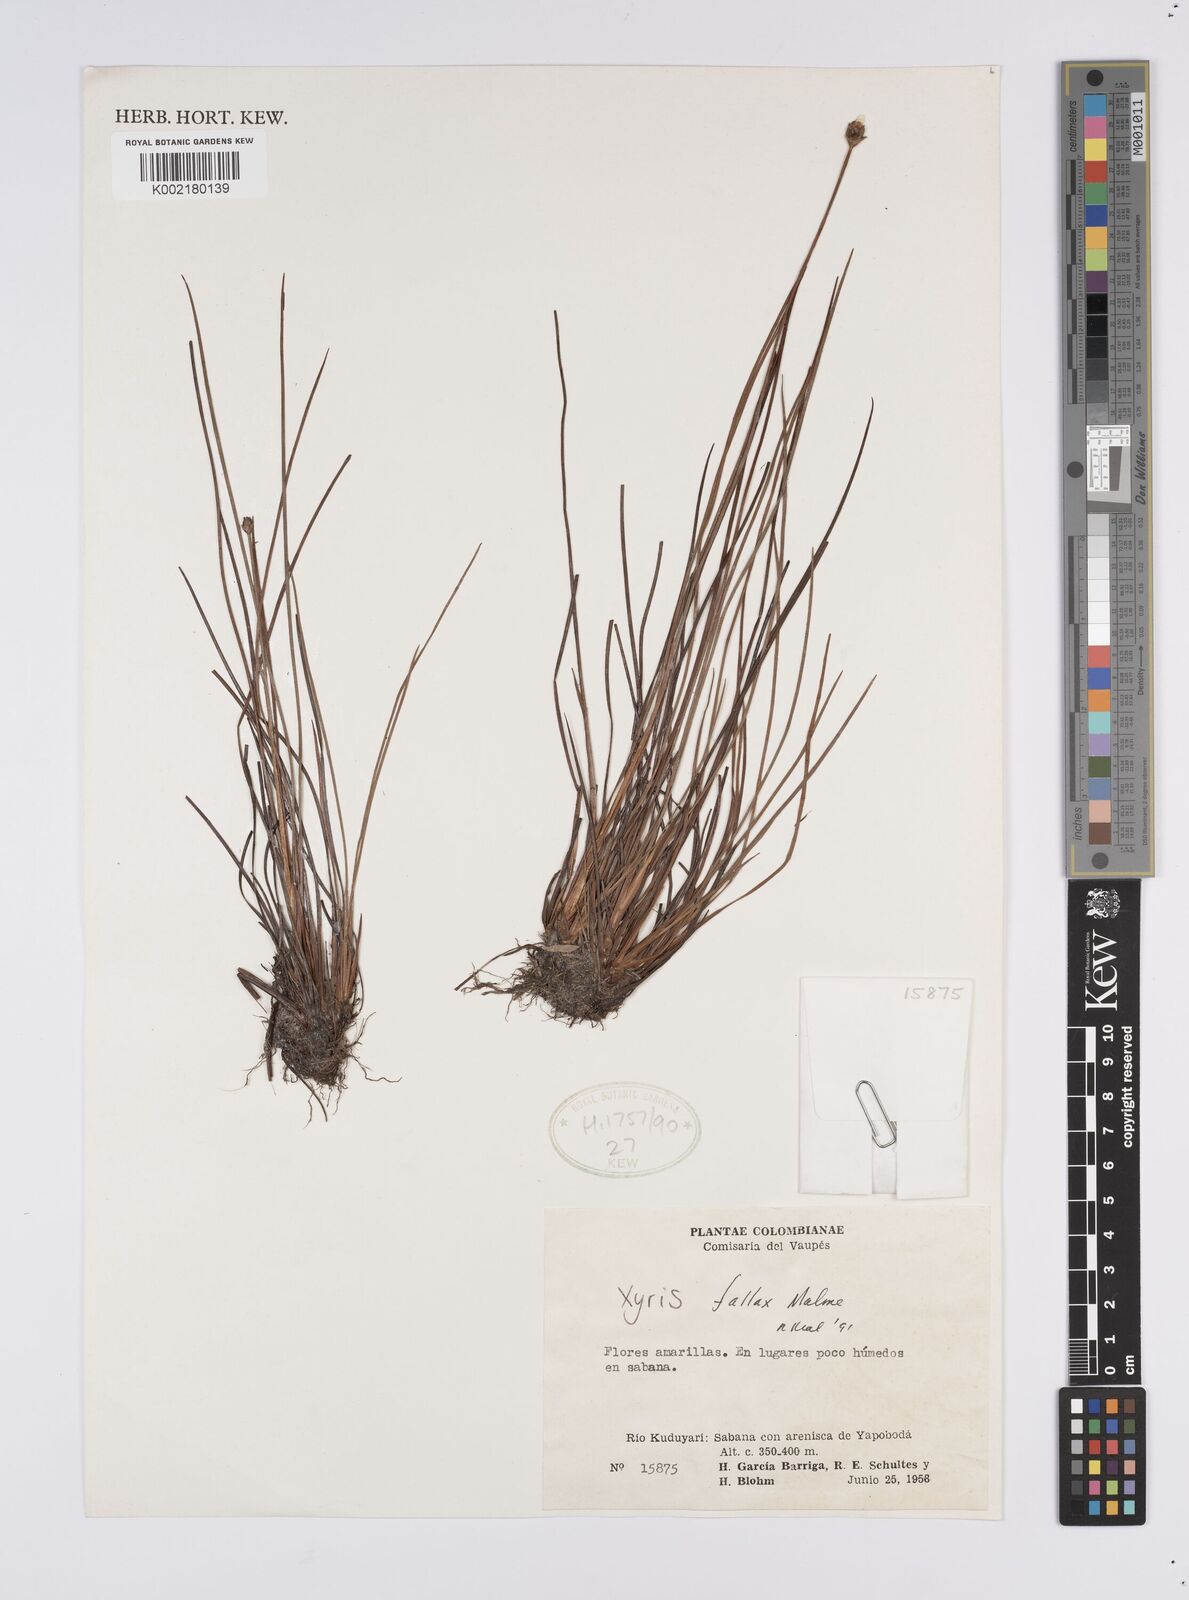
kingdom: Plantae
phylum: Tracheophyta
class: Liliopsida
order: Poales
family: Xyridaceae
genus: Xyris
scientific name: Xyris fallax
